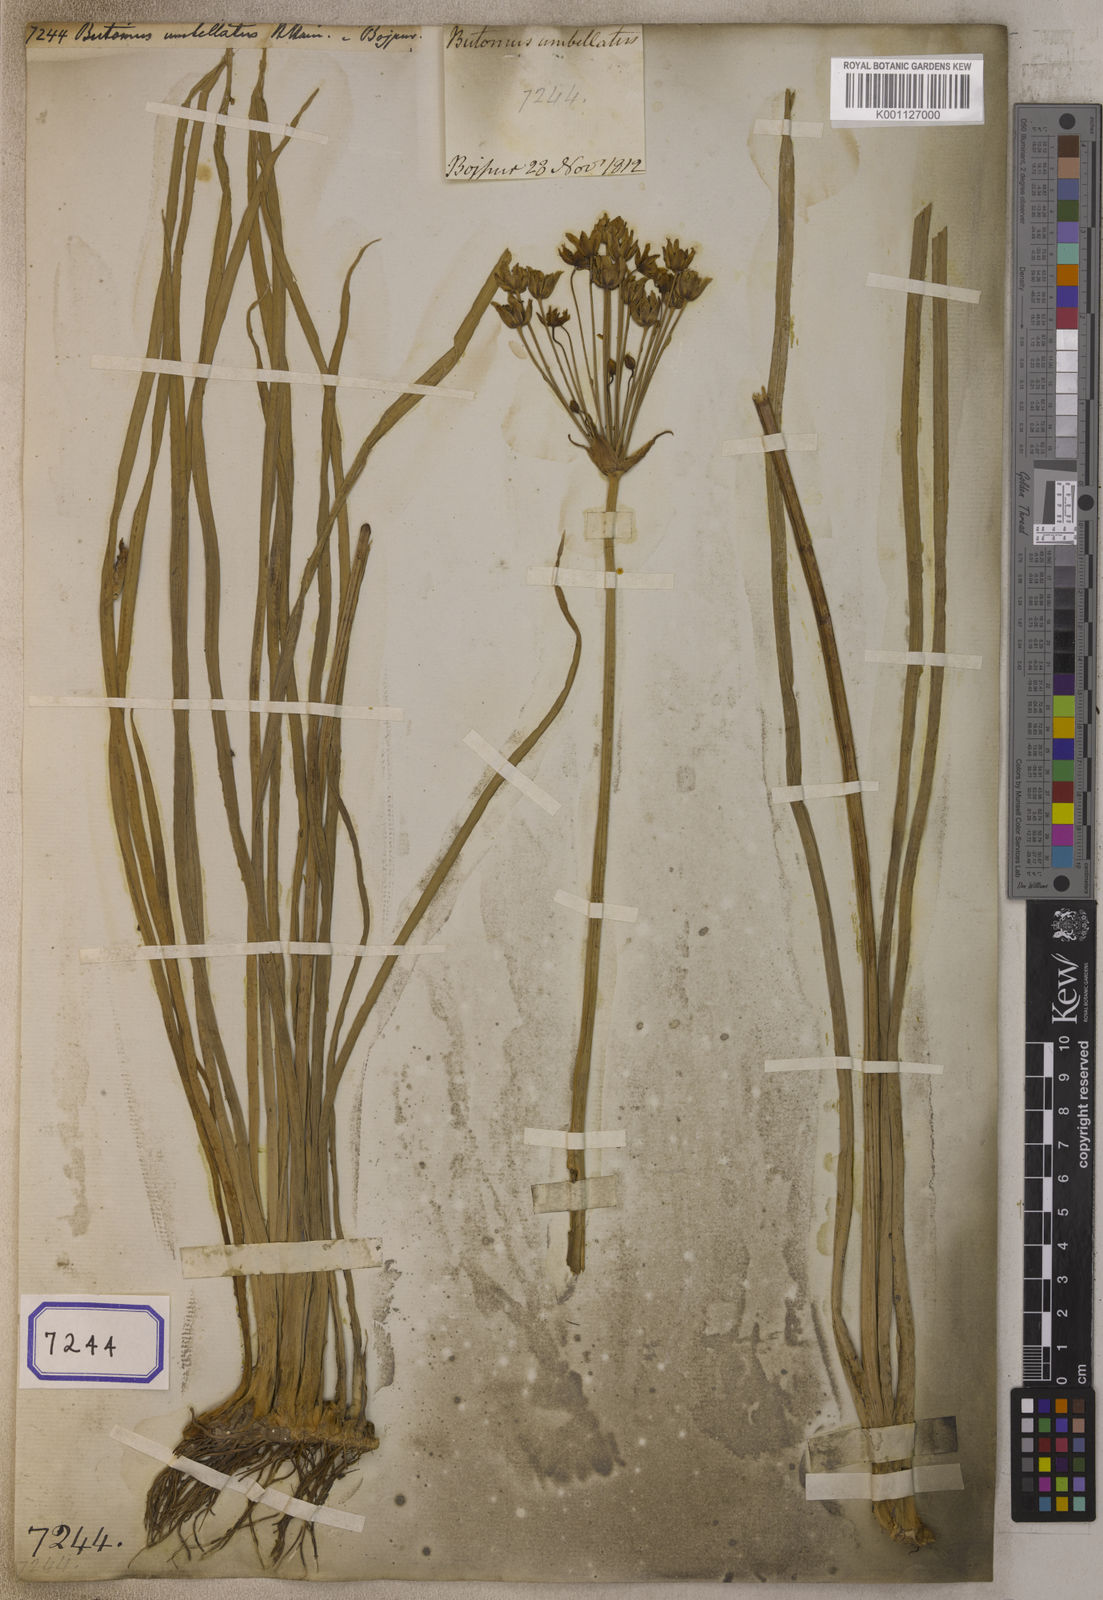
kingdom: Plantae
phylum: Tracheophyta
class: Liliopsida
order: Alismatales
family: Butomaceae
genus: Butomus
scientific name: Butomus umbellatus
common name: Flowering-rush
